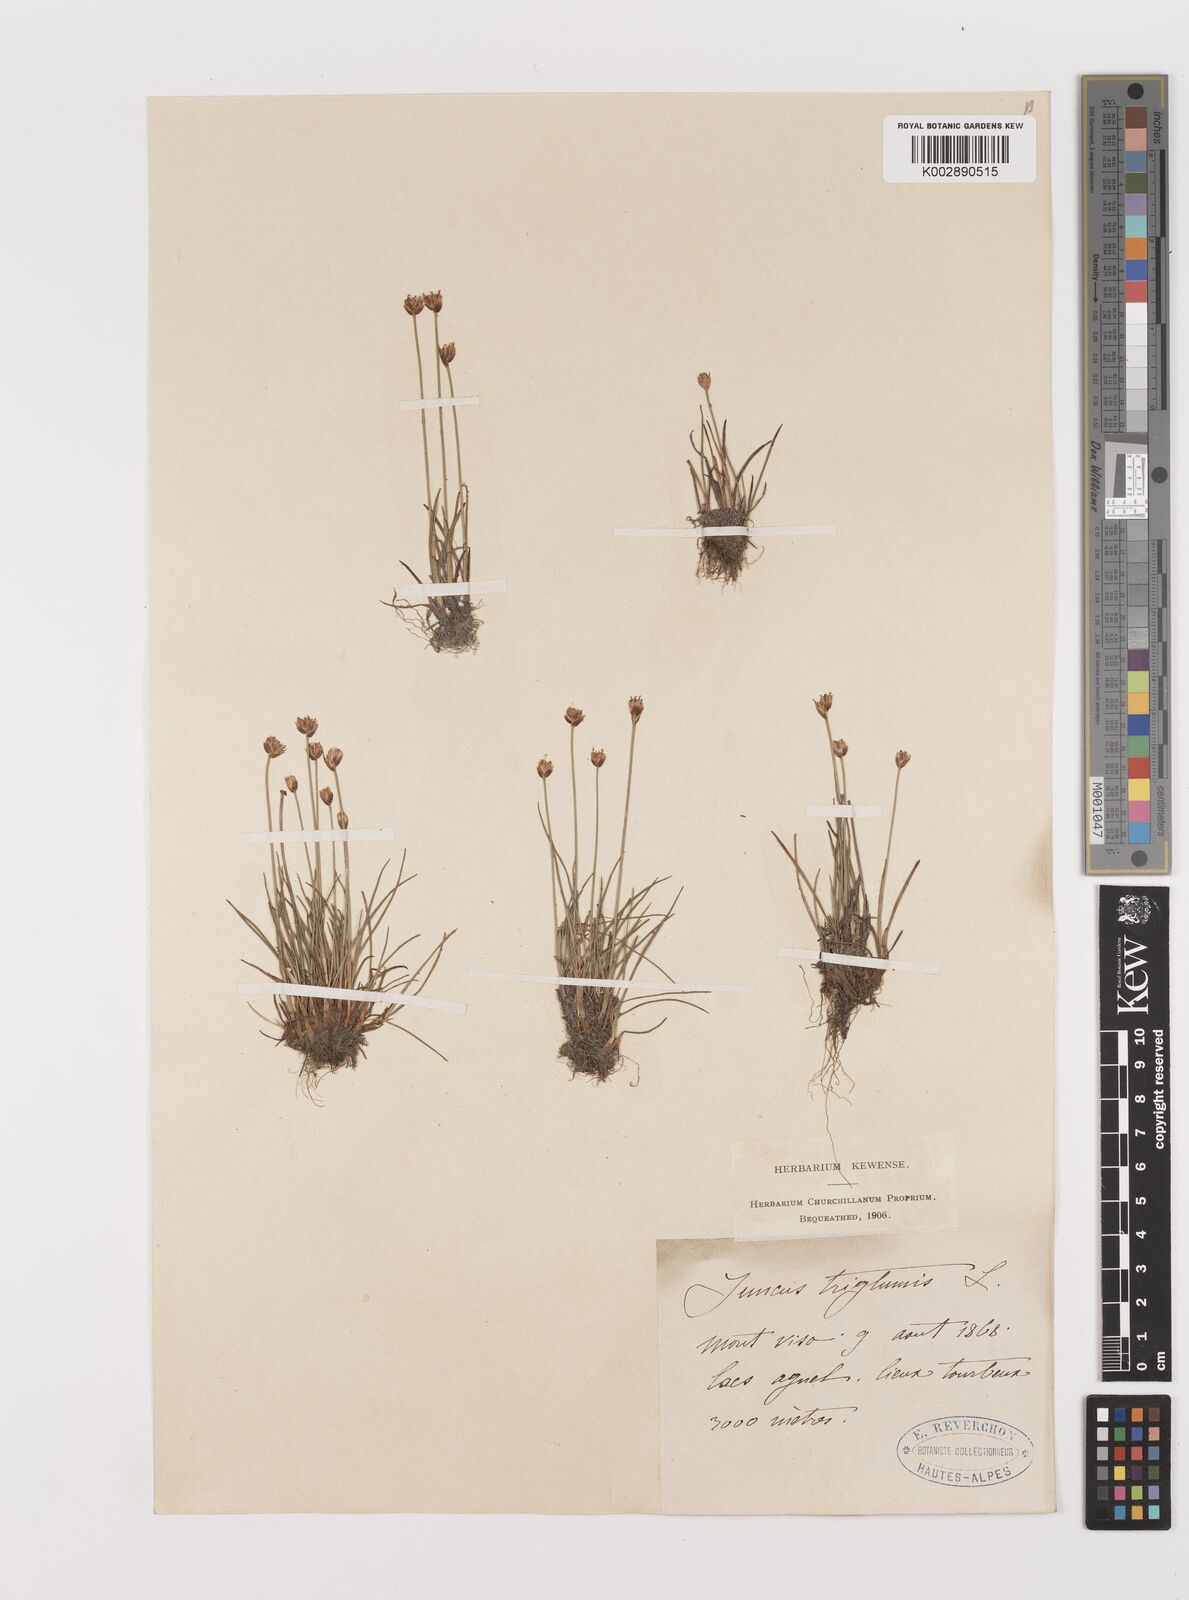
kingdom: Plantae
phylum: Tracheophyta
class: Liliopsida
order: Poales
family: Juncaceae
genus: Juncus
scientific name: Juncus triglumis
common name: Three-flowered rush
